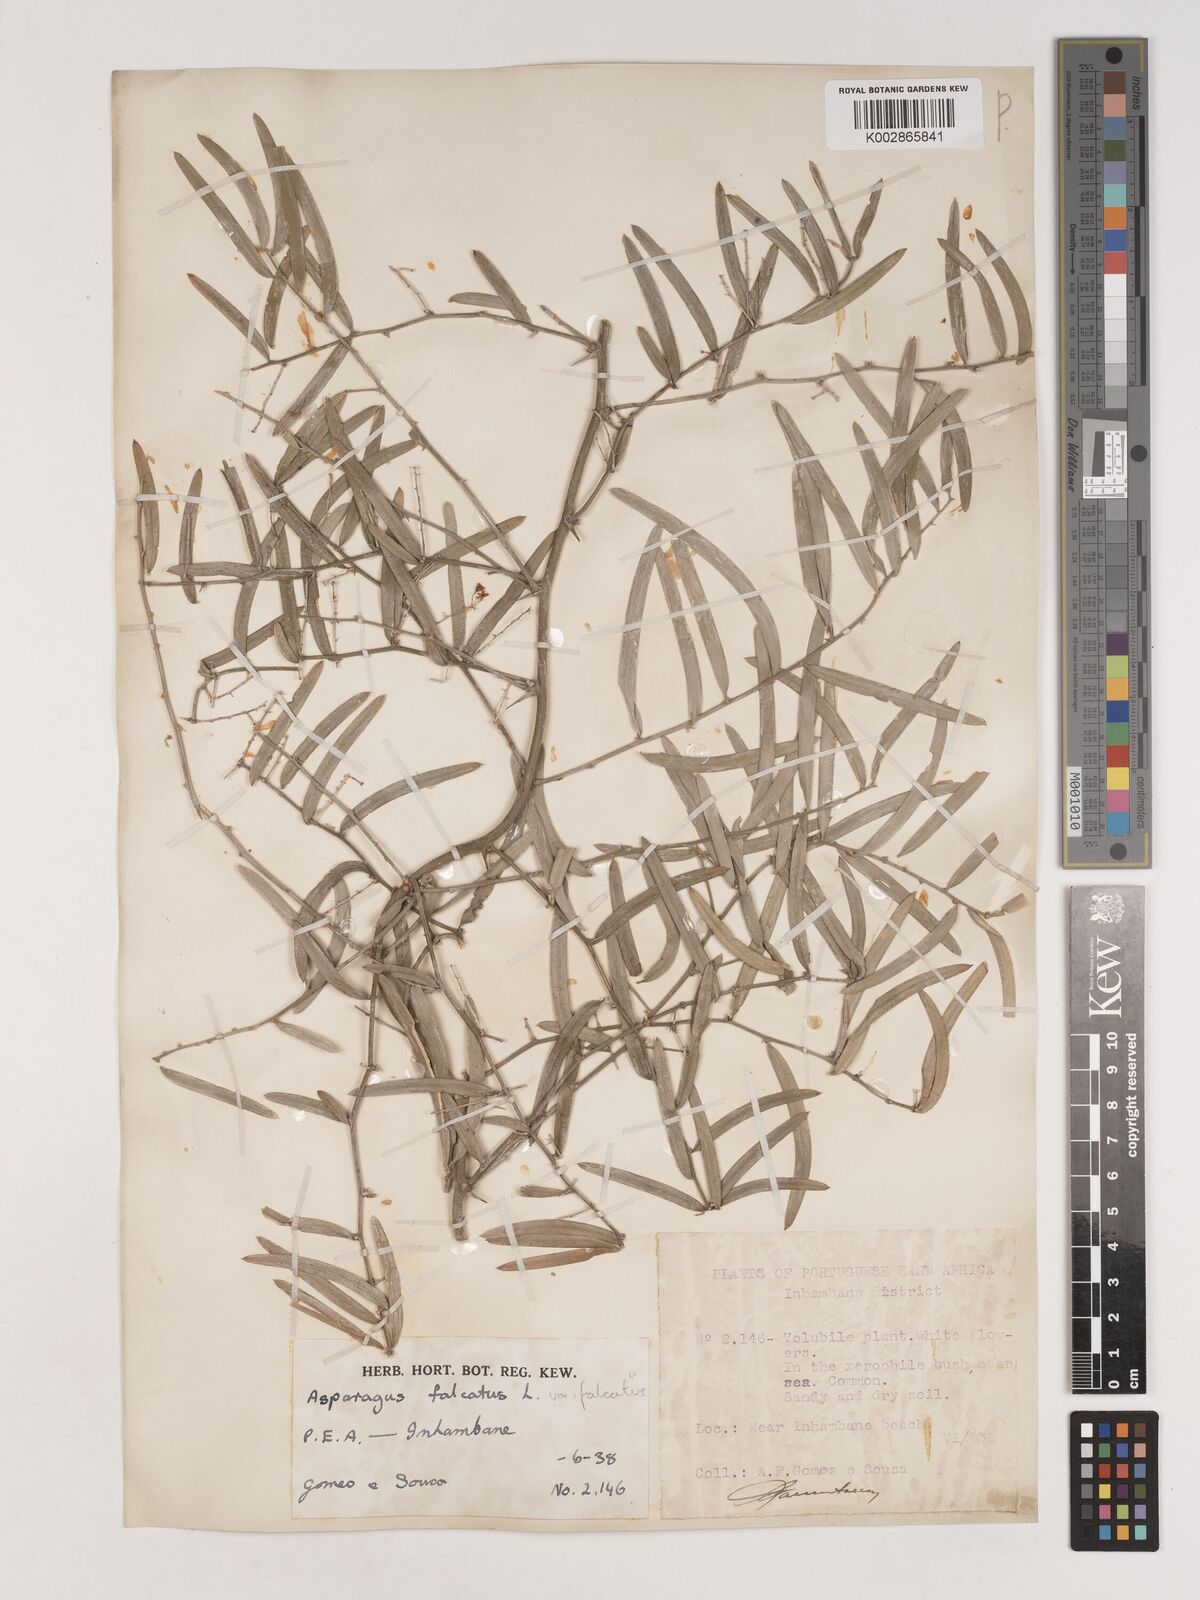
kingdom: Plantae
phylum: Tracheophyta
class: Liliopsida
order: Asparagales
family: Asparagaceae
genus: Asparagus
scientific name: Asparagus falcatus
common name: Asparagus
